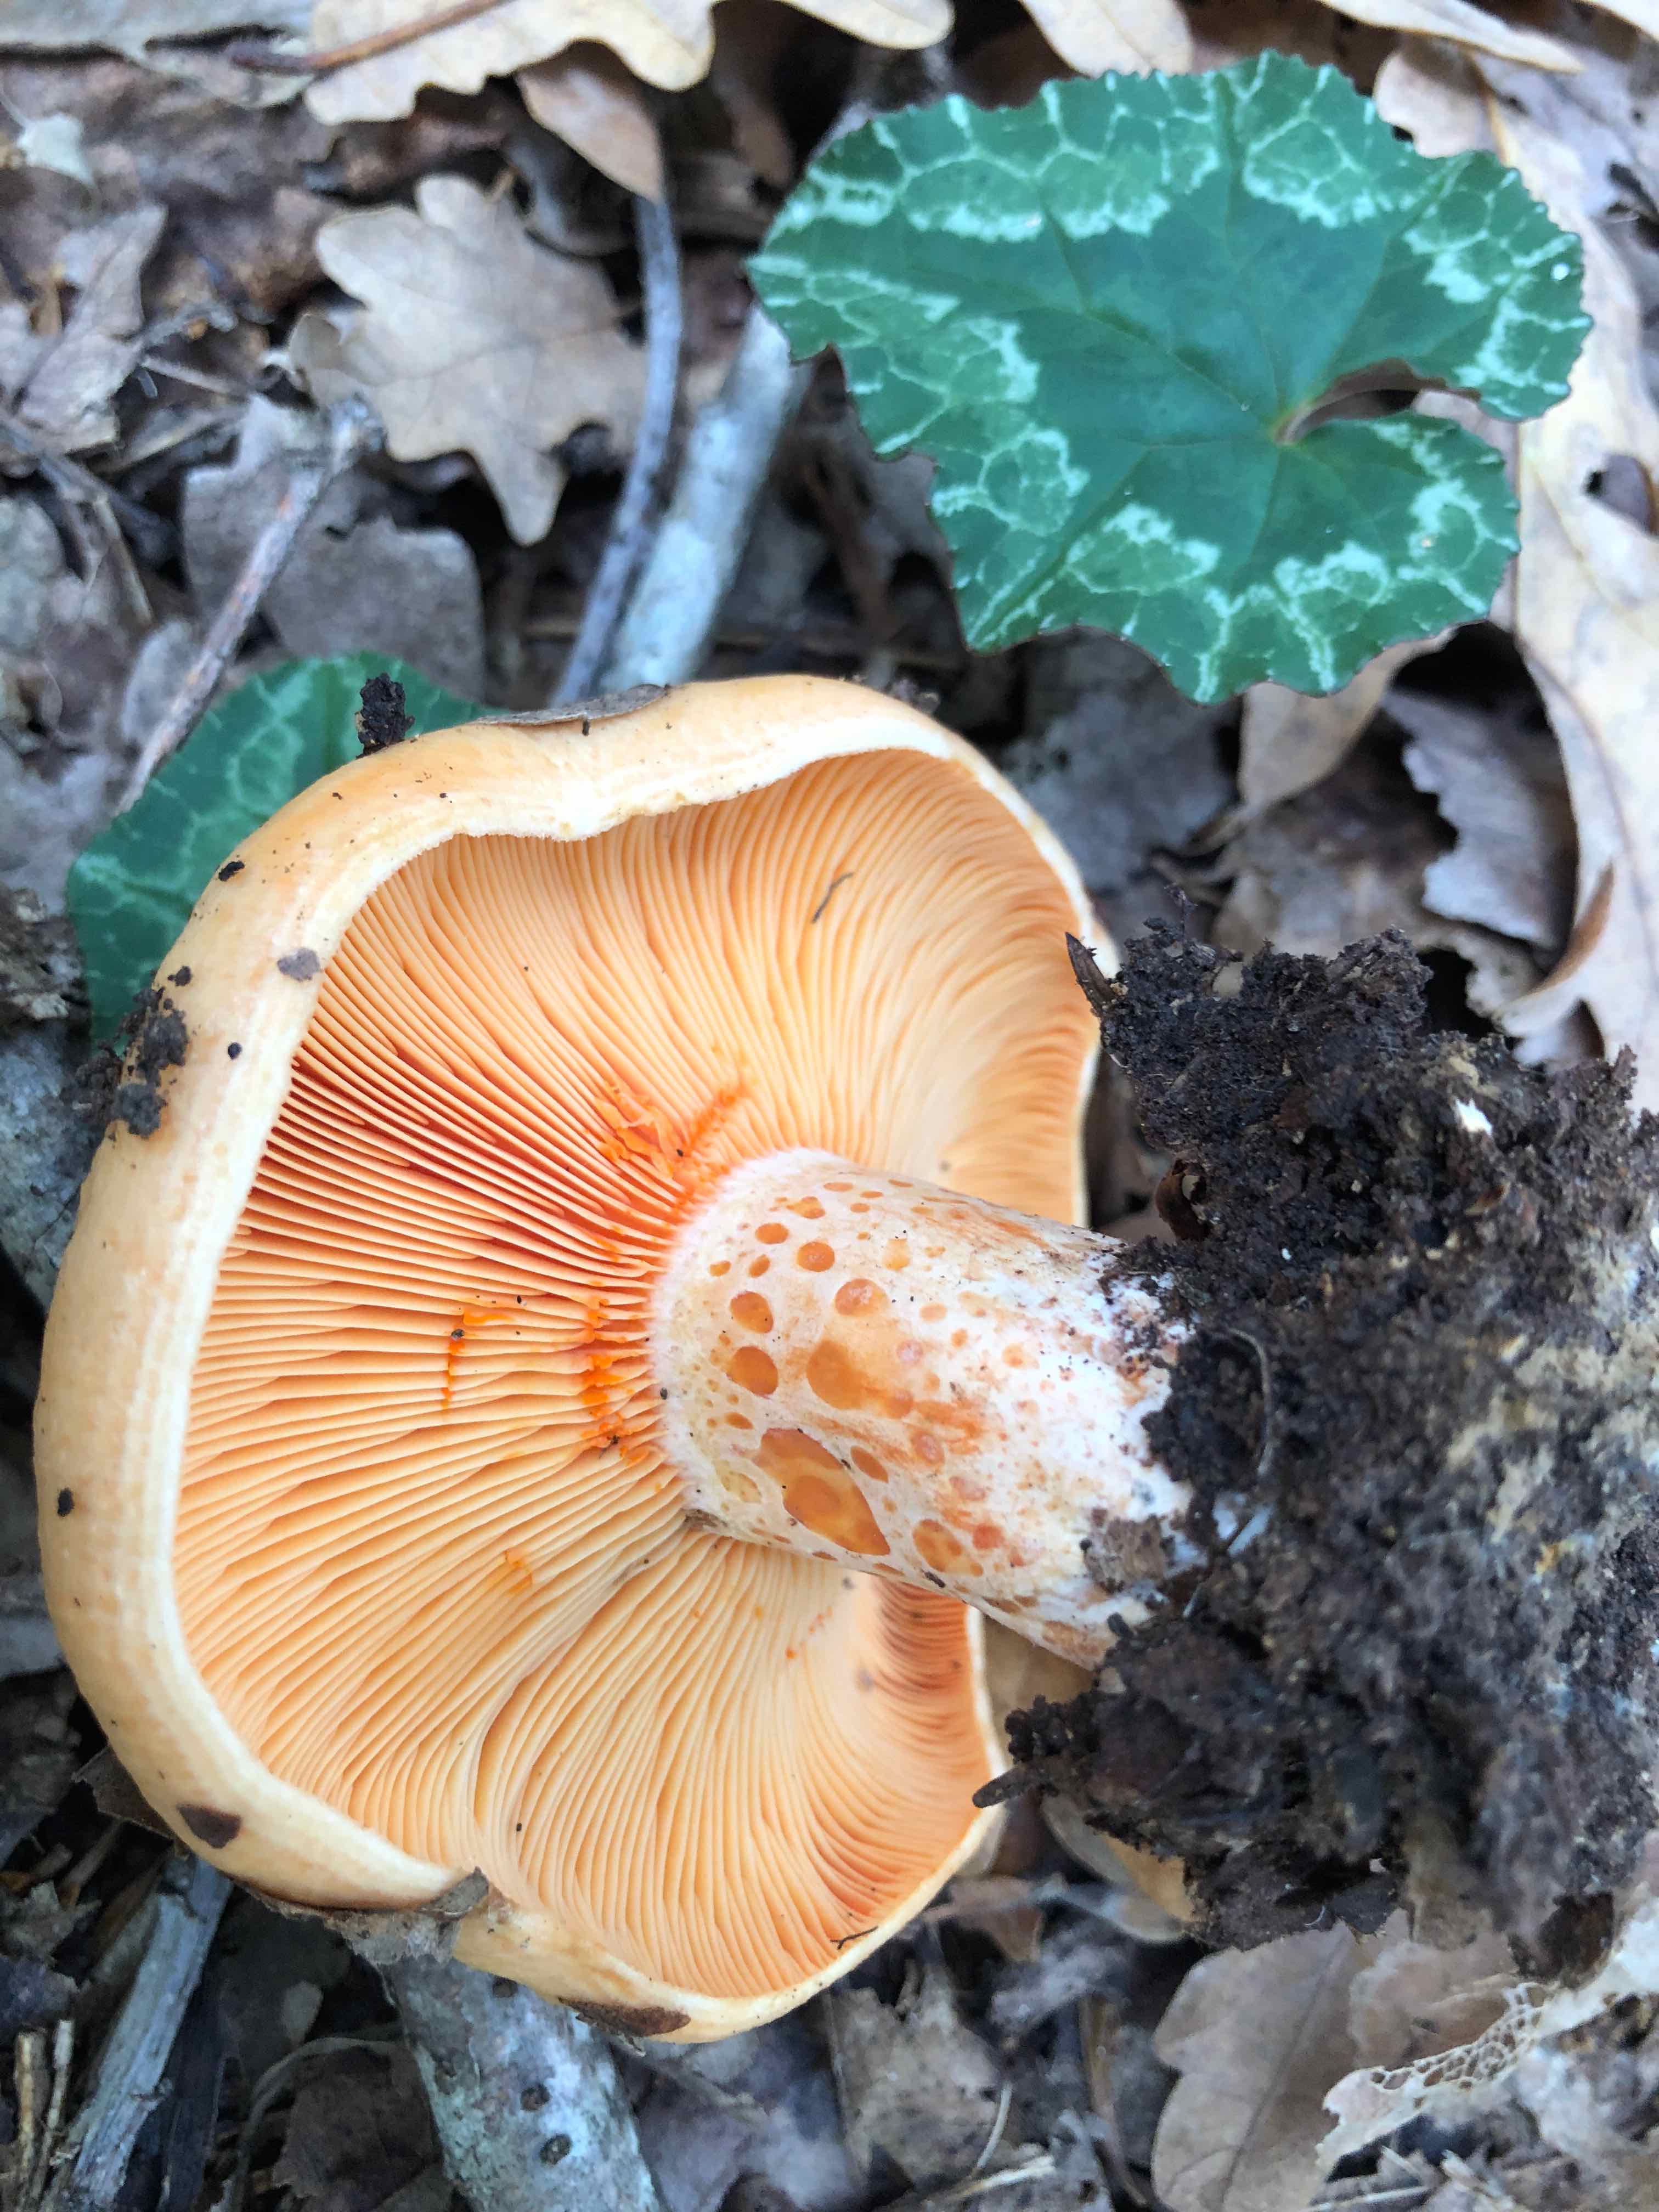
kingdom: Fungi
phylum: Basidiomycota
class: Agaricomycetes
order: Russulales
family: Russulaceae
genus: Lactarius
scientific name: Lactarius salmonicolor
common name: laksefarvet mælkehat
